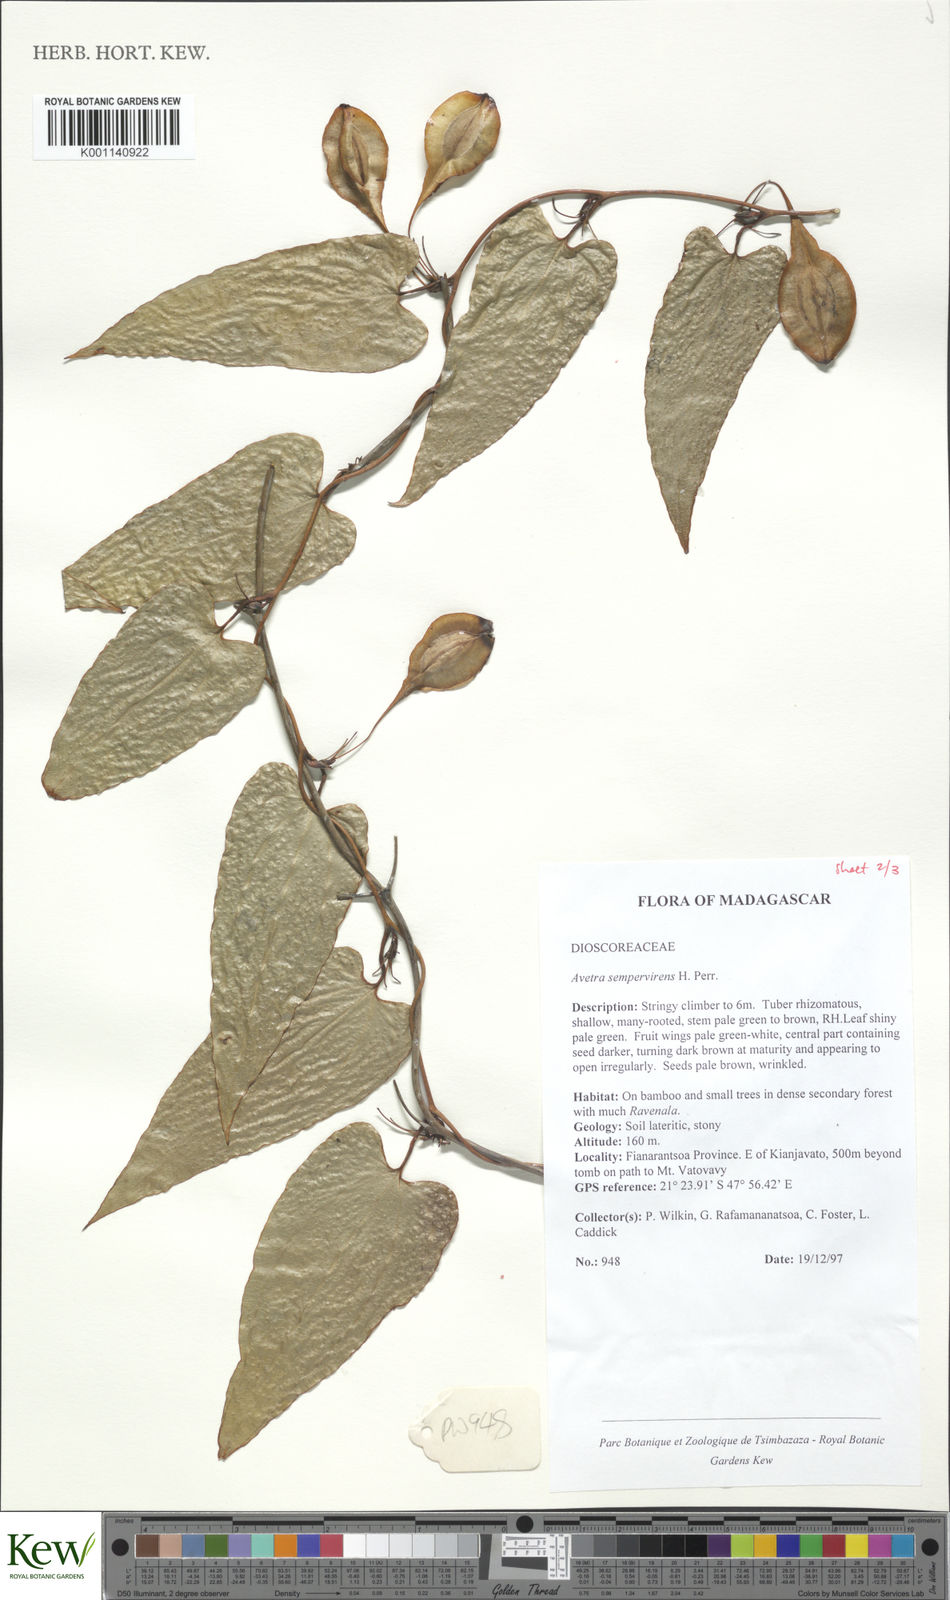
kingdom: Plantae
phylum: Tracheophyta
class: Liliopsida
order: Dioscoreales
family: Dioscoreaceae
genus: Trichopus
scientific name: Trichopus sempervirens
